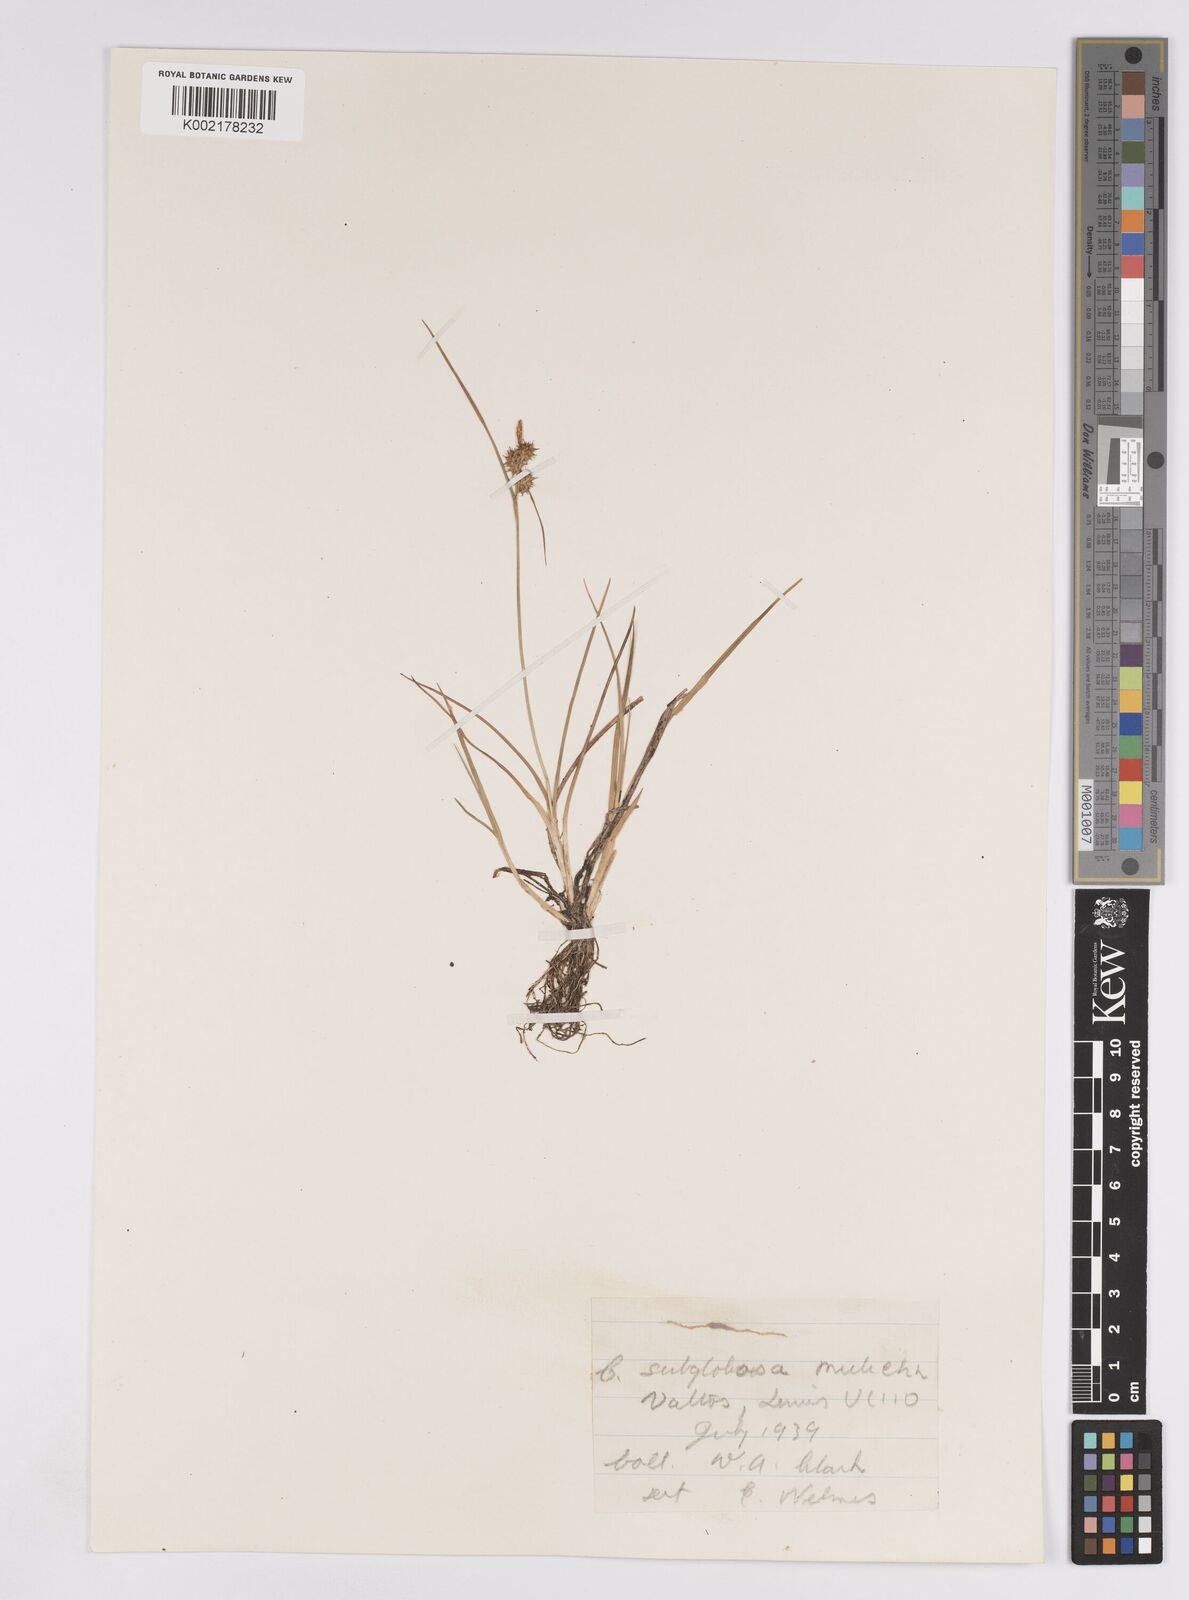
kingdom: Plantae
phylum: Tracheophyta
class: Liliopsida
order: Poales
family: Cyperaceae
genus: Carex
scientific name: Carex demissa
